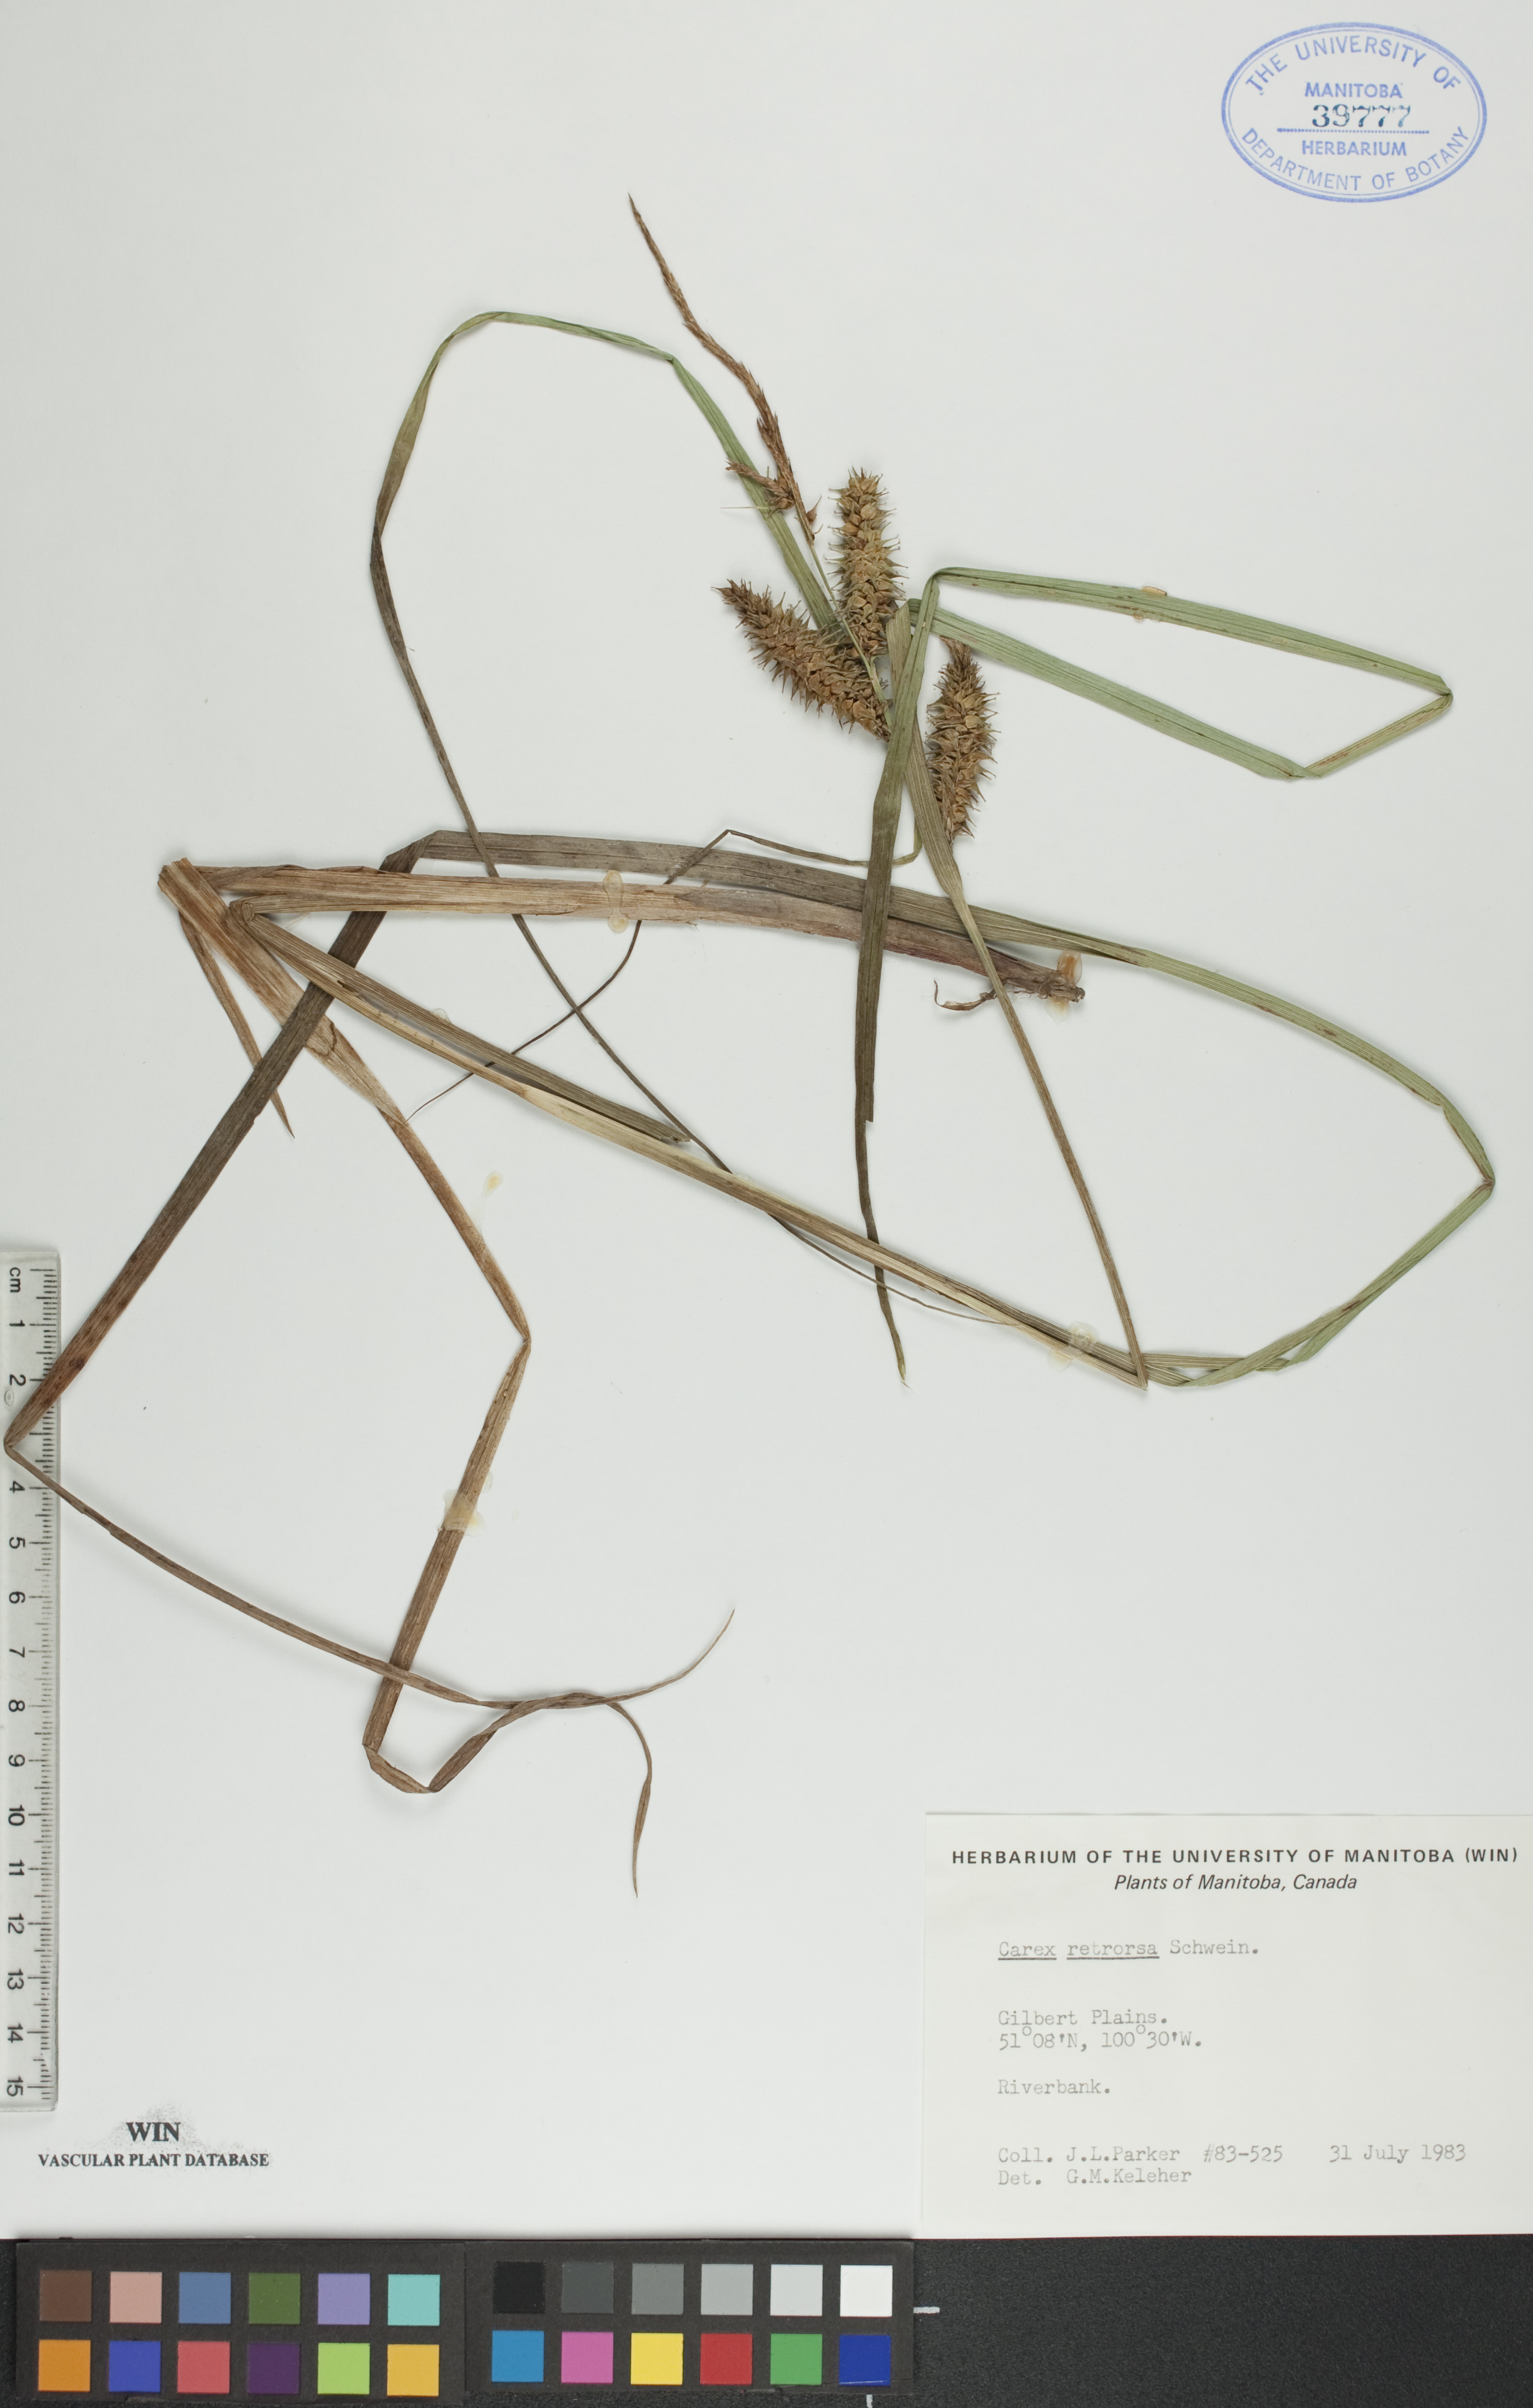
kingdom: Plantae
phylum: Tracheophyta
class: Liliopsida
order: Poales
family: Cyperaceae
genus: Carex
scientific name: Carex retrorsa
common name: Knot-sheath sedge
